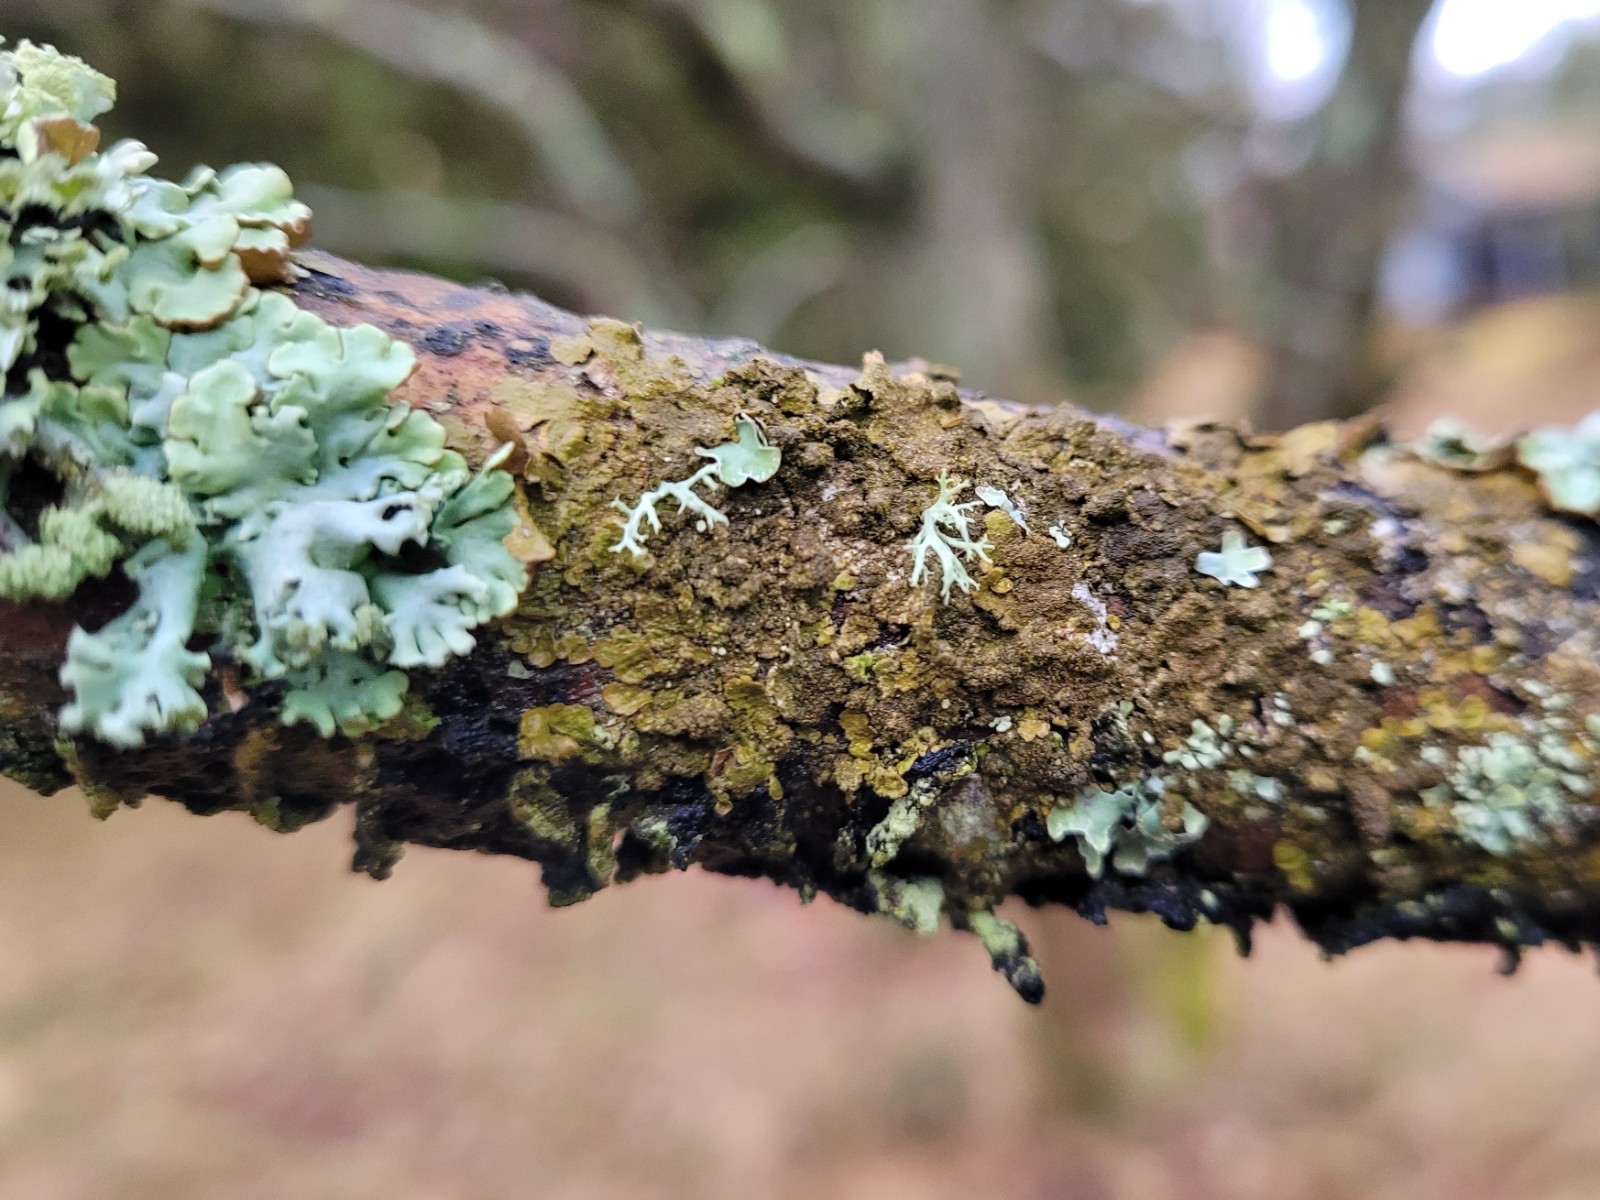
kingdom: Fungi
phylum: Ascomycota
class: Lecanoromycetes
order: Lecanorales
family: Parmeliaceae
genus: Melanelixia
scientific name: Melanelixia subaurifera
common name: guldpudret skållav
